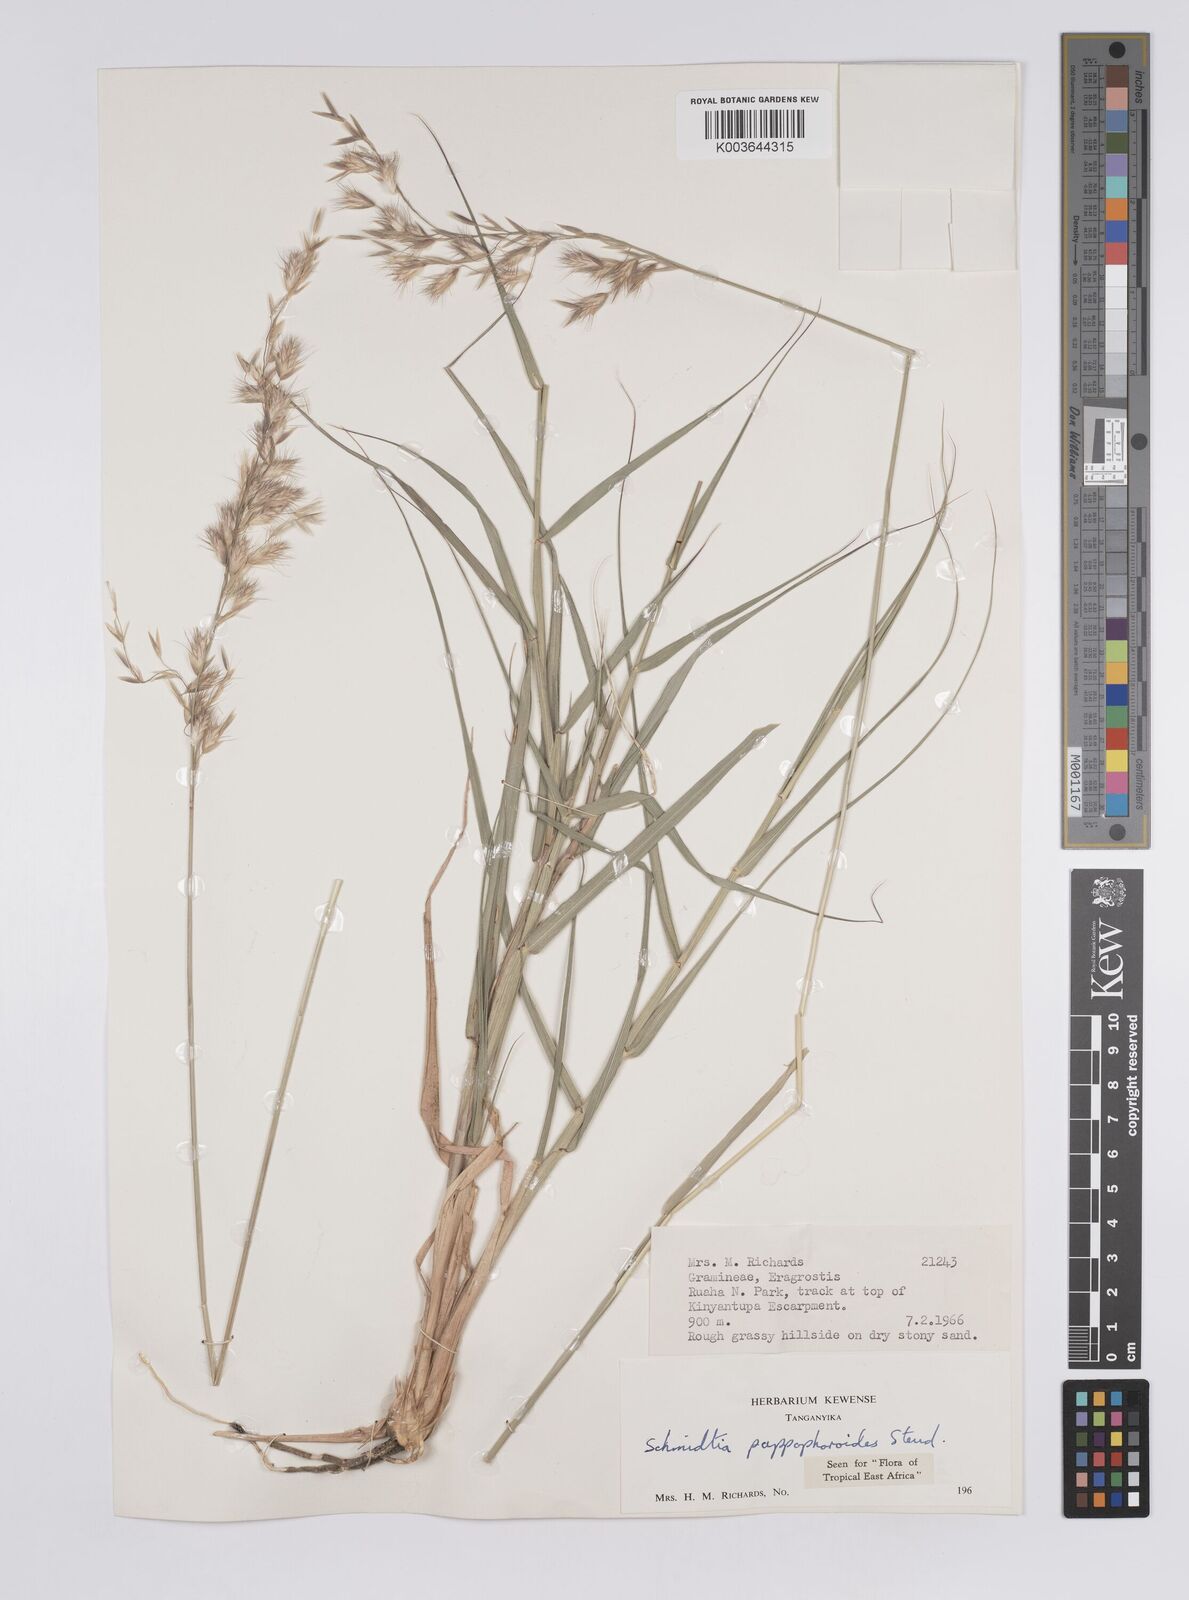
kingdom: Plantae
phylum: Tracheophyta
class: Liliopsida
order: Poales
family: Poaceae
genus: Schmidtia
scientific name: Schmidtia pappophoroides
